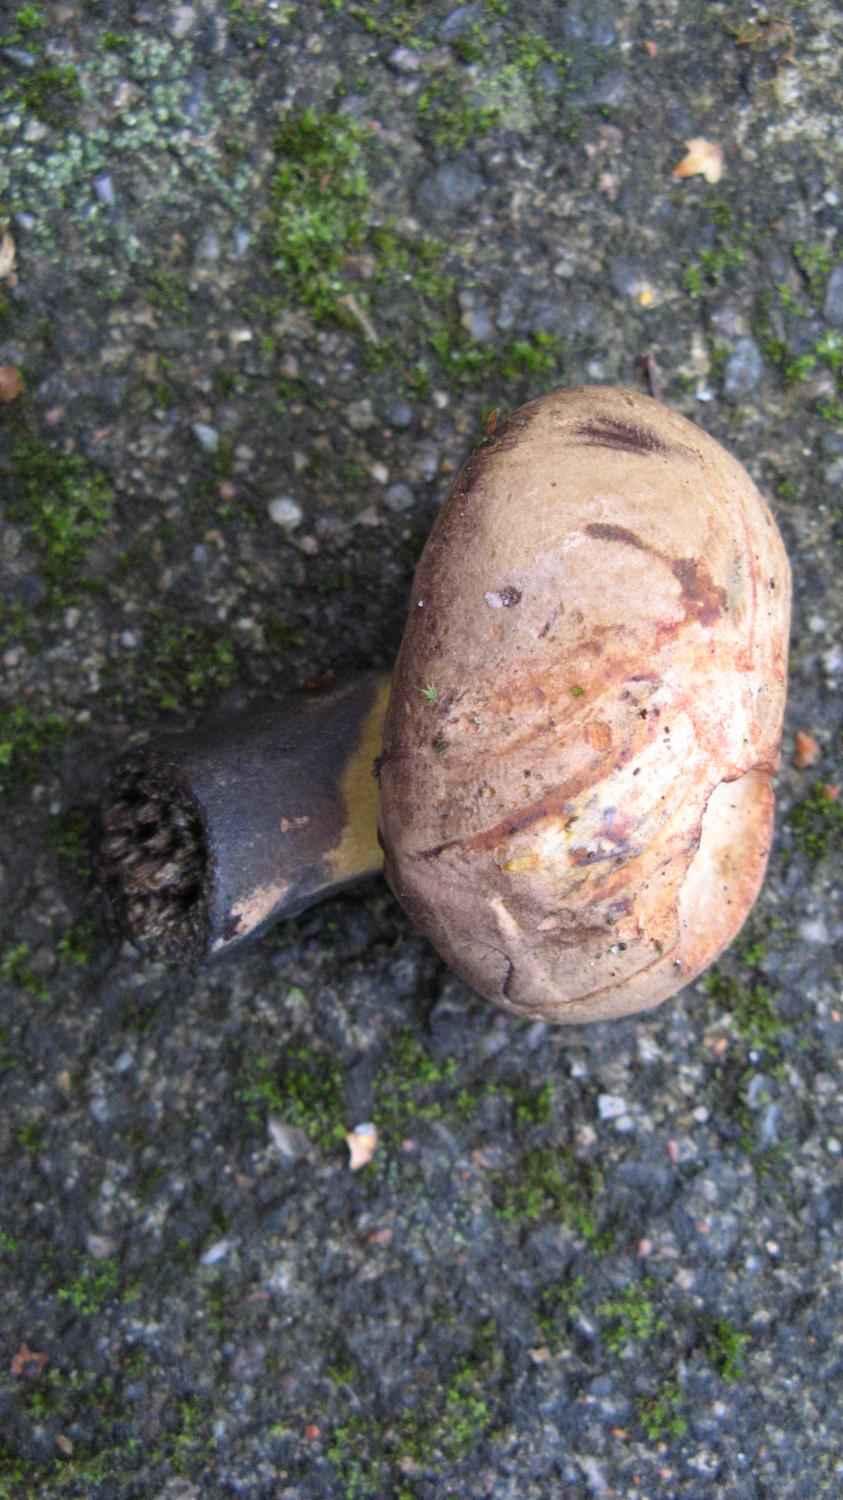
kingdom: Fungi
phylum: Basidiomycota
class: Agaricomycetes
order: Boletales
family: Boletaceae
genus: Cyanoboletus
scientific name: Cyanoboletus pulverulentus
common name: sortblånende rørhat
